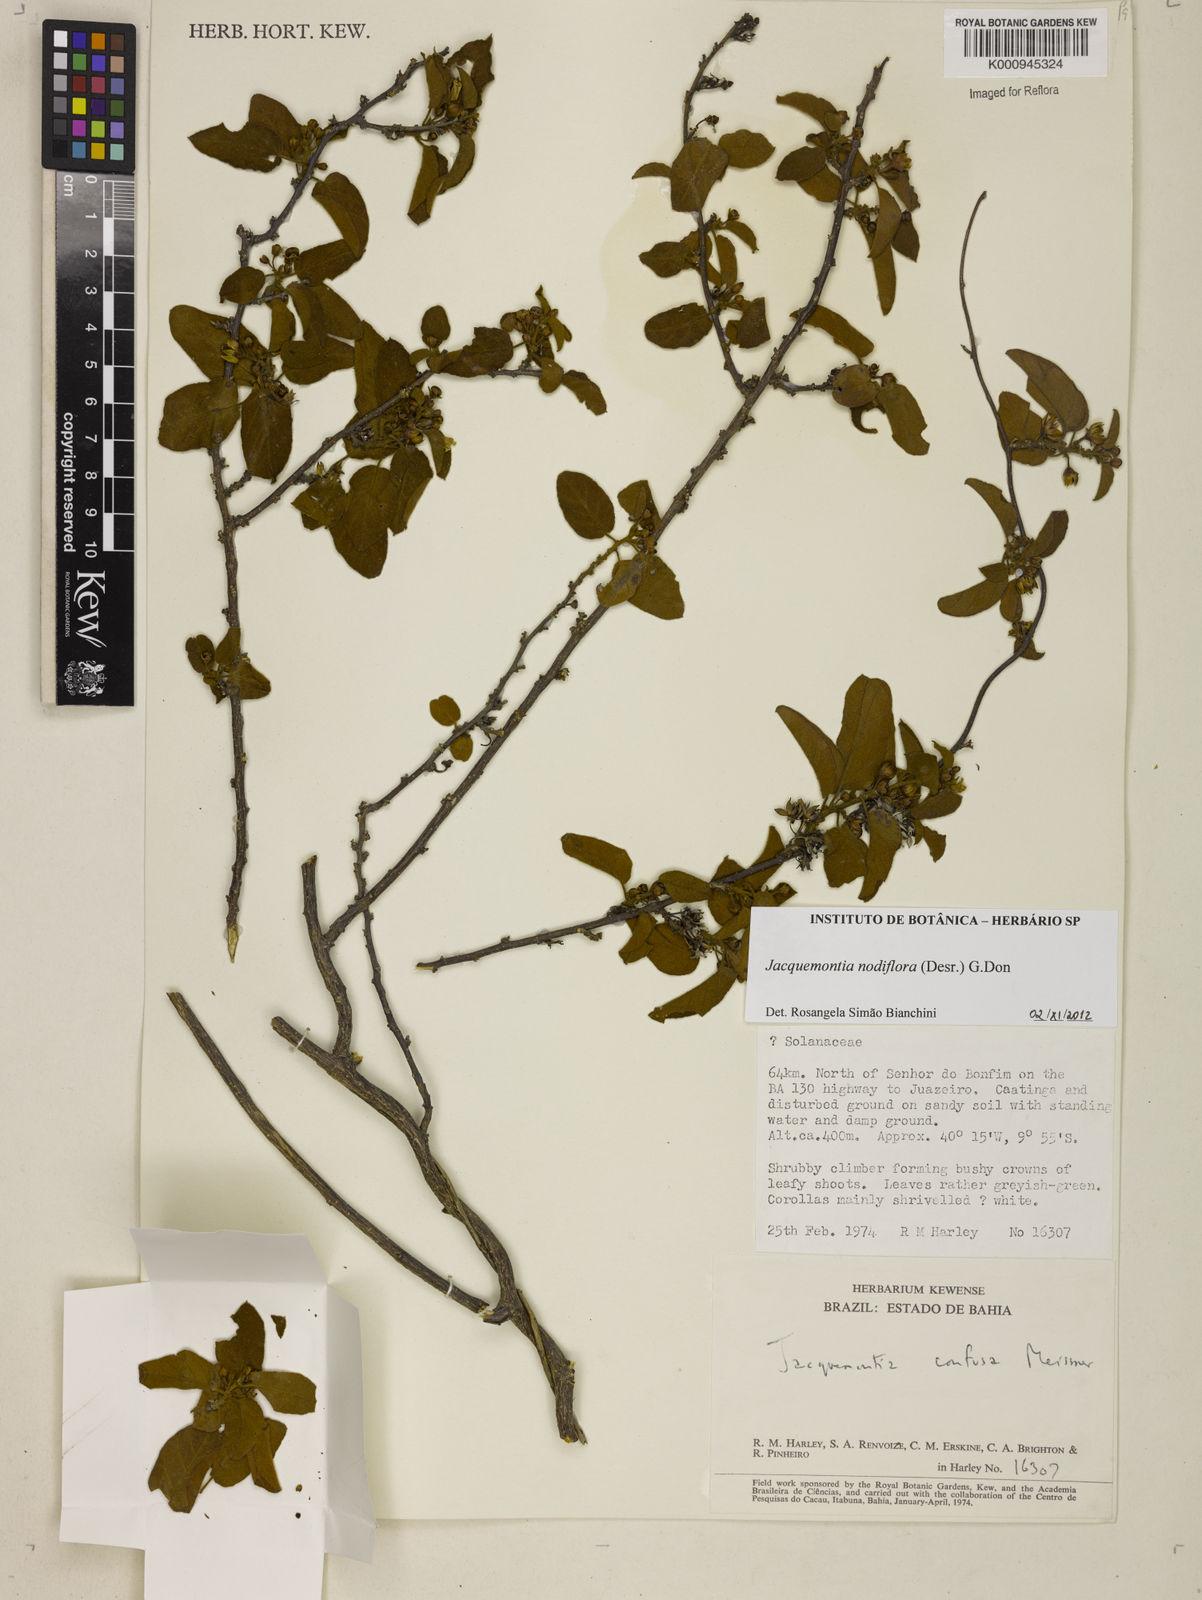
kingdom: Plantae
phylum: Tracheophyta
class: Magnoliopsida
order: Solanales
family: Convolvulaceae
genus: Jacquemontia
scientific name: Jacquemontia nodiflora
